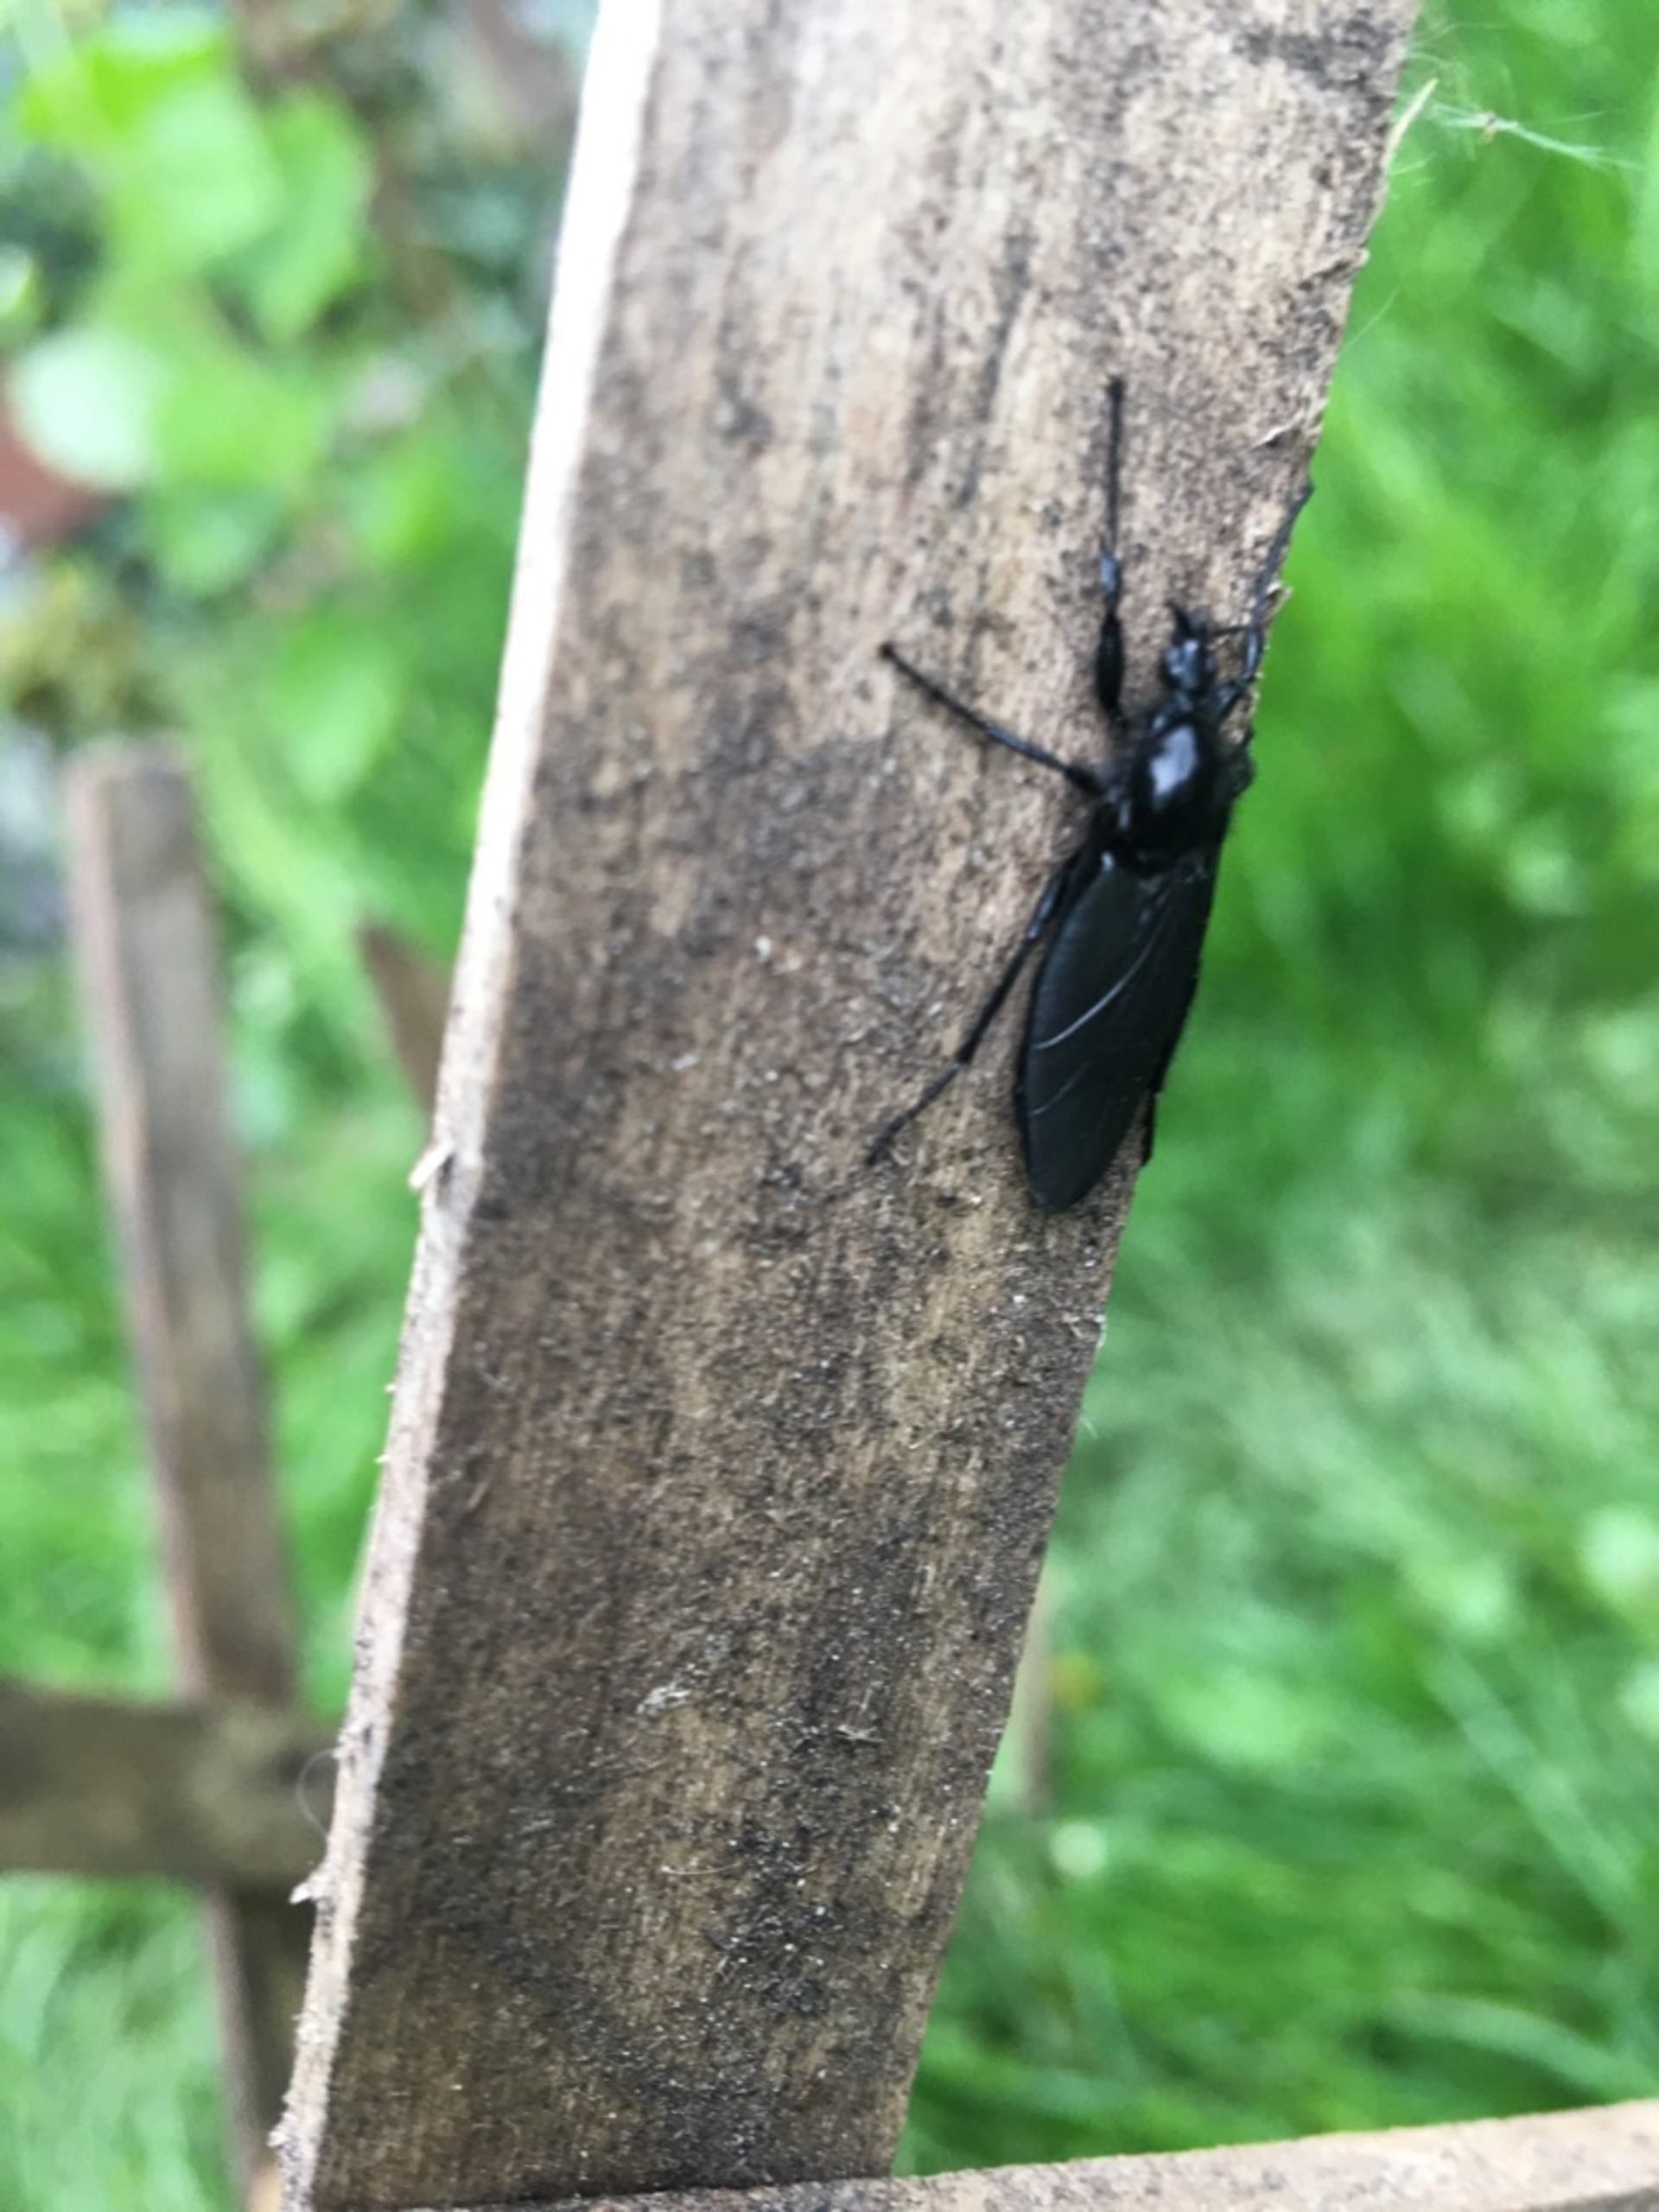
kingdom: Animalia
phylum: Arthropoda
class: Insecta
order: Diptera
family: Bibionidae
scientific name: Bibionidae
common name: Hårmyg
